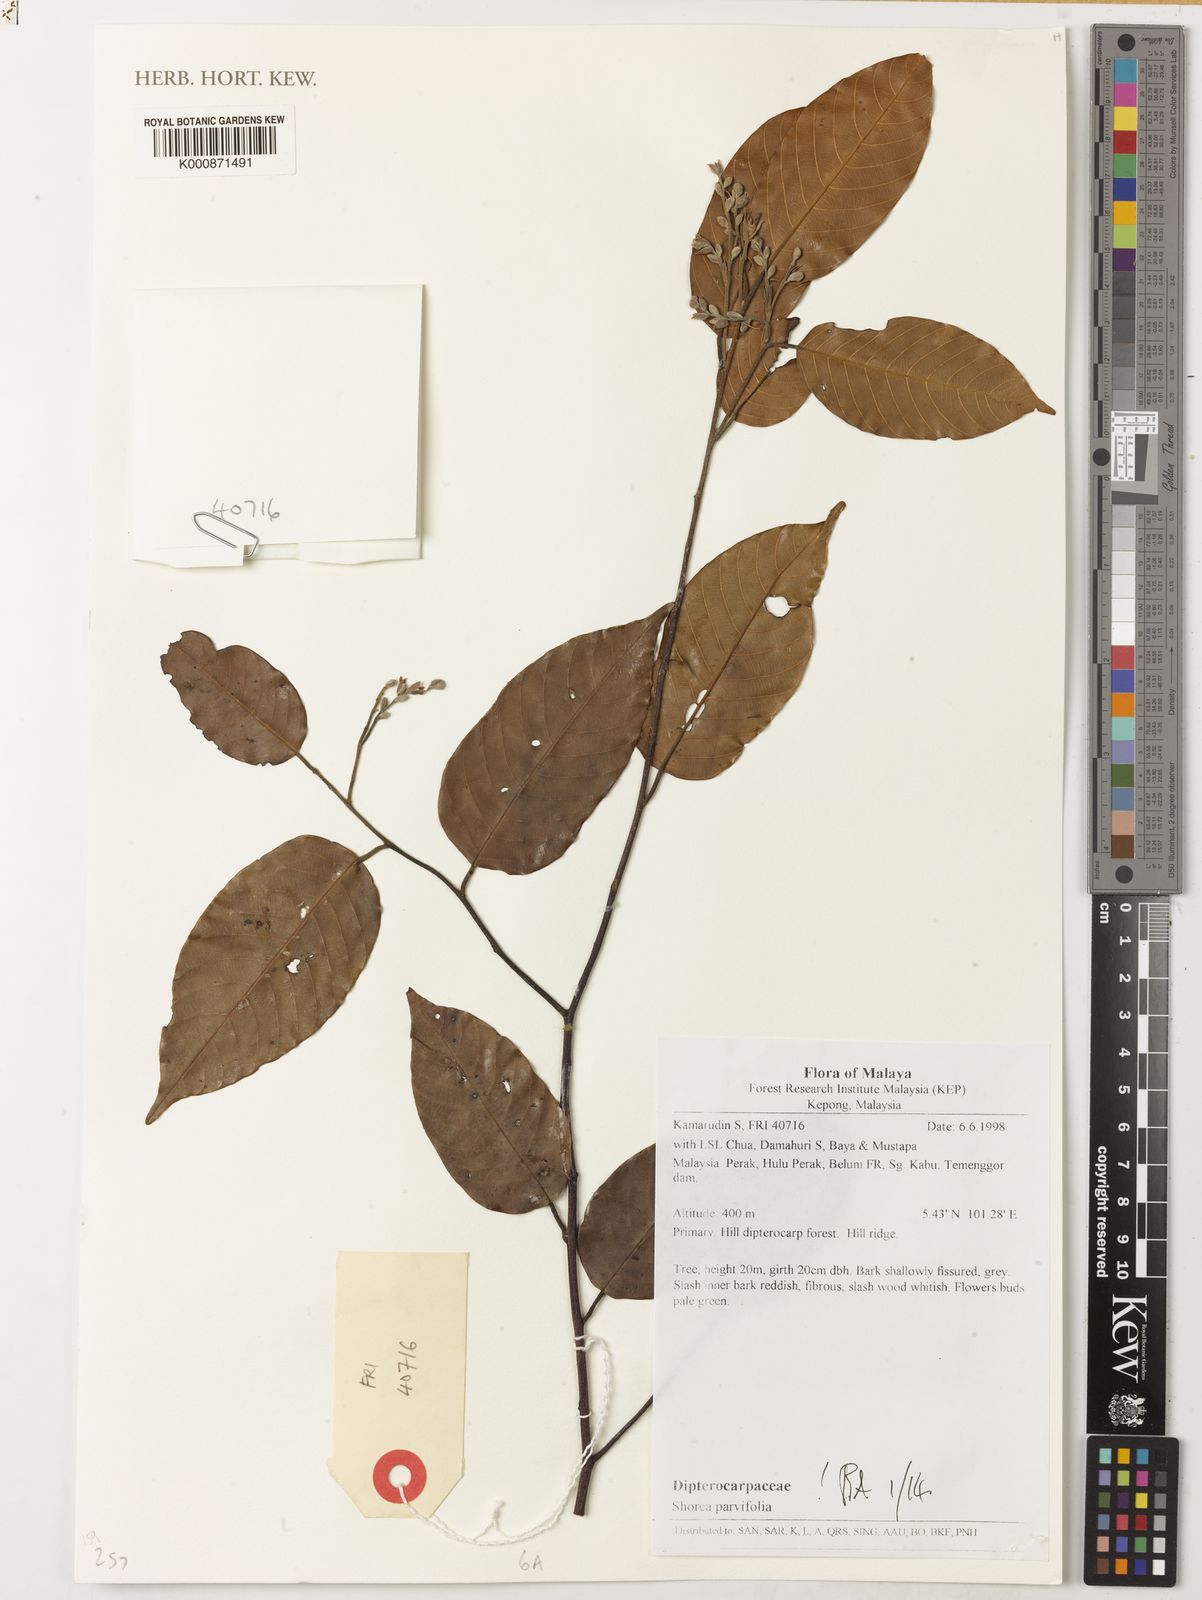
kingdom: Plantae
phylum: Tracheophyta
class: Magnoliopsida
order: Malvales
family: Dipterocarpaceae
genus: Shorea
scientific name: Shorea parvifolia
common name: Light red meranti
